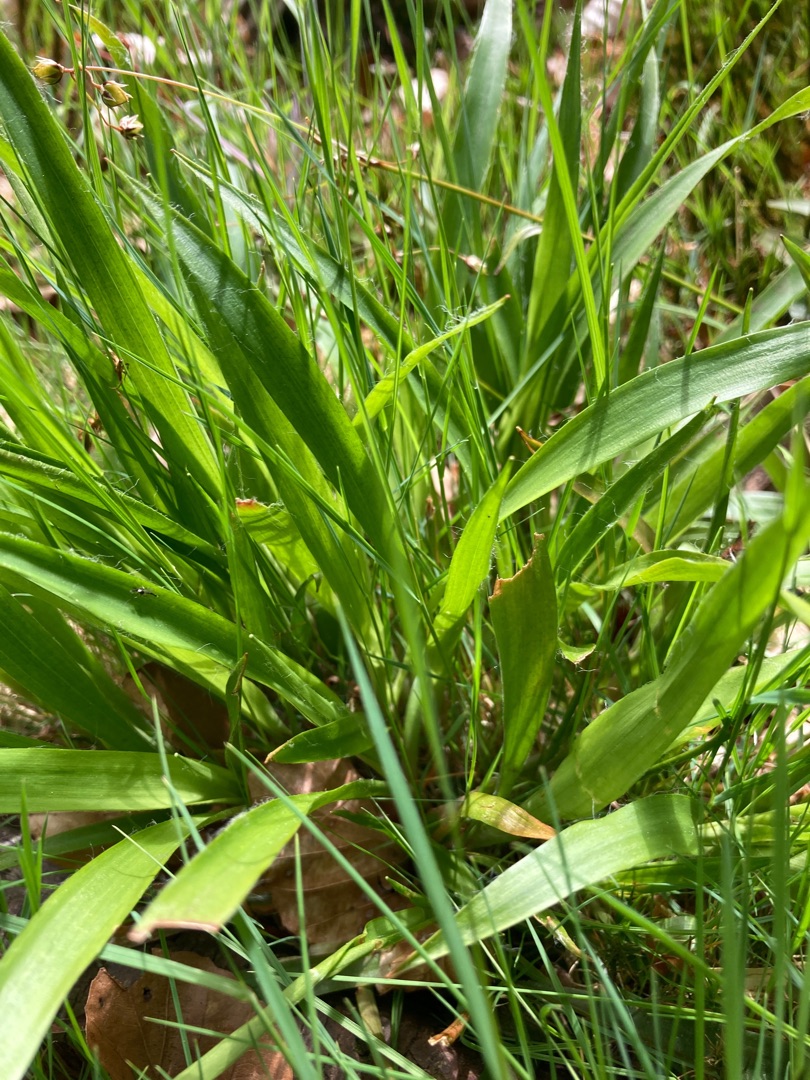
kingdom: Plantae
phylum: Tracheophyta
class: Liliopsida
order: Poales
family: Juncaceae
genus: Luzula
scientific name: Luzula pilosa
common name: Håret frytle
